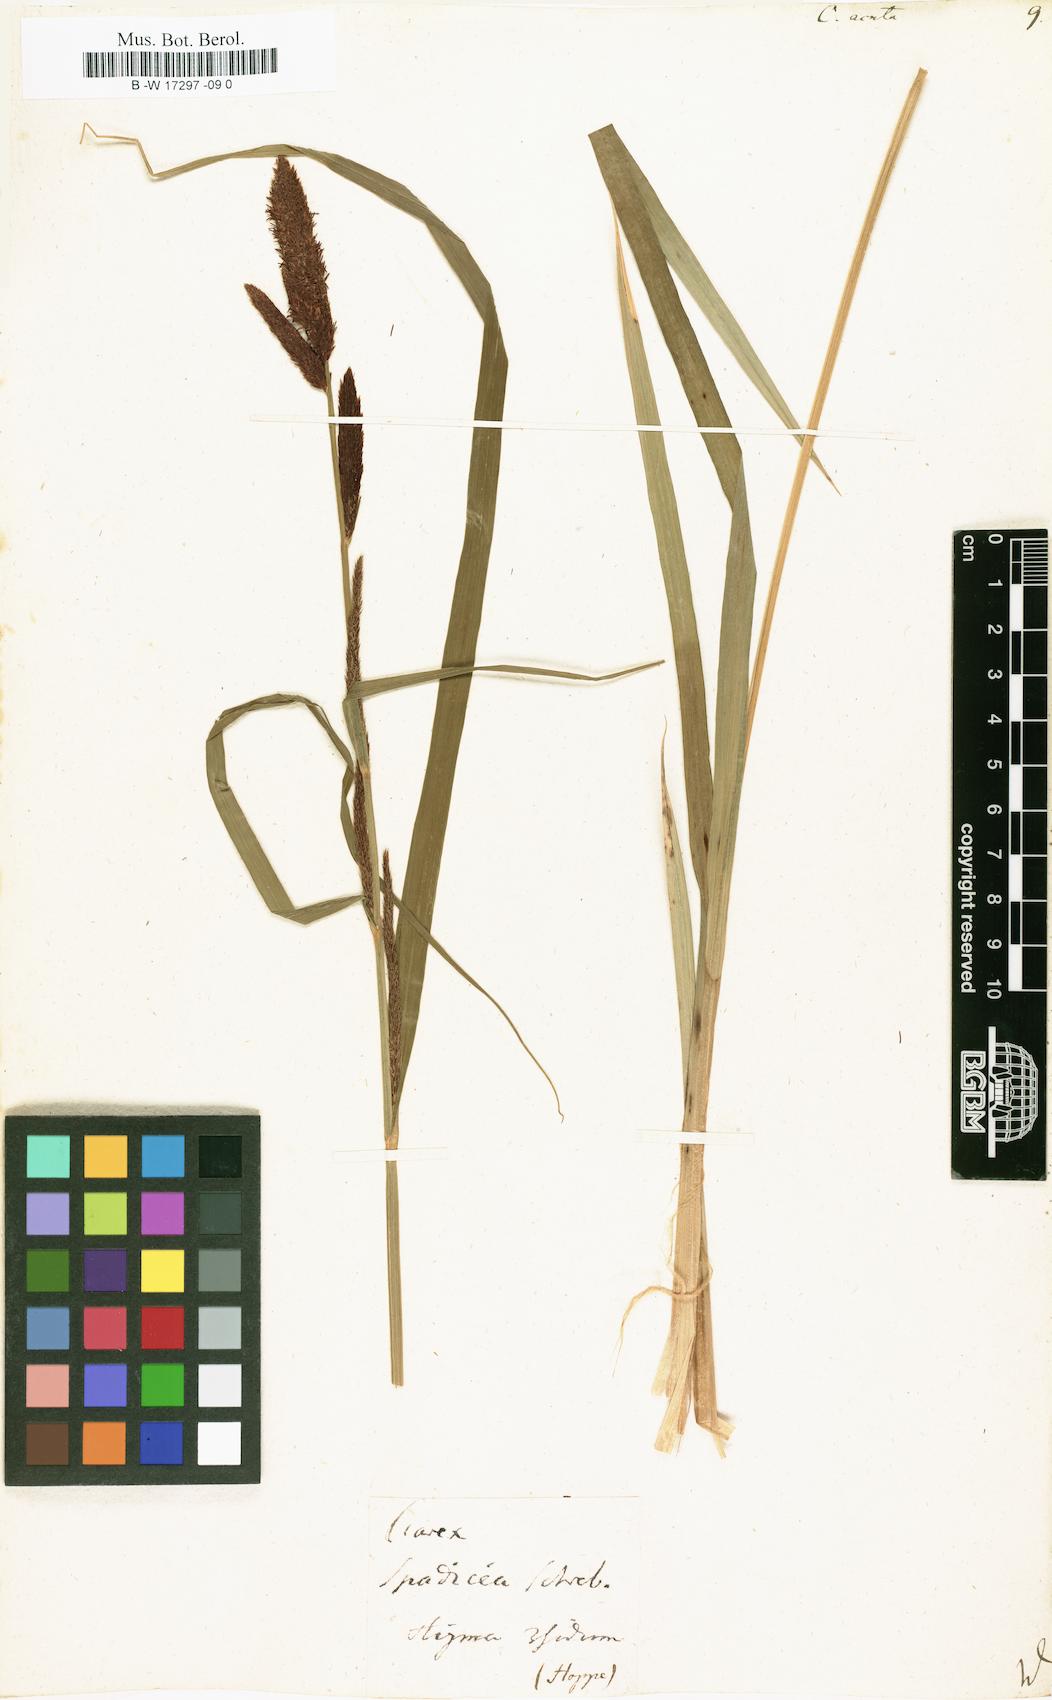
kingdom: Plantae
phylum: Tracheophyta
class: Liliopsida
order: Poales
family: Cyperaceae
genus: Carex
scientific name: Carex acuta
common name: Slender tufted-sedge
